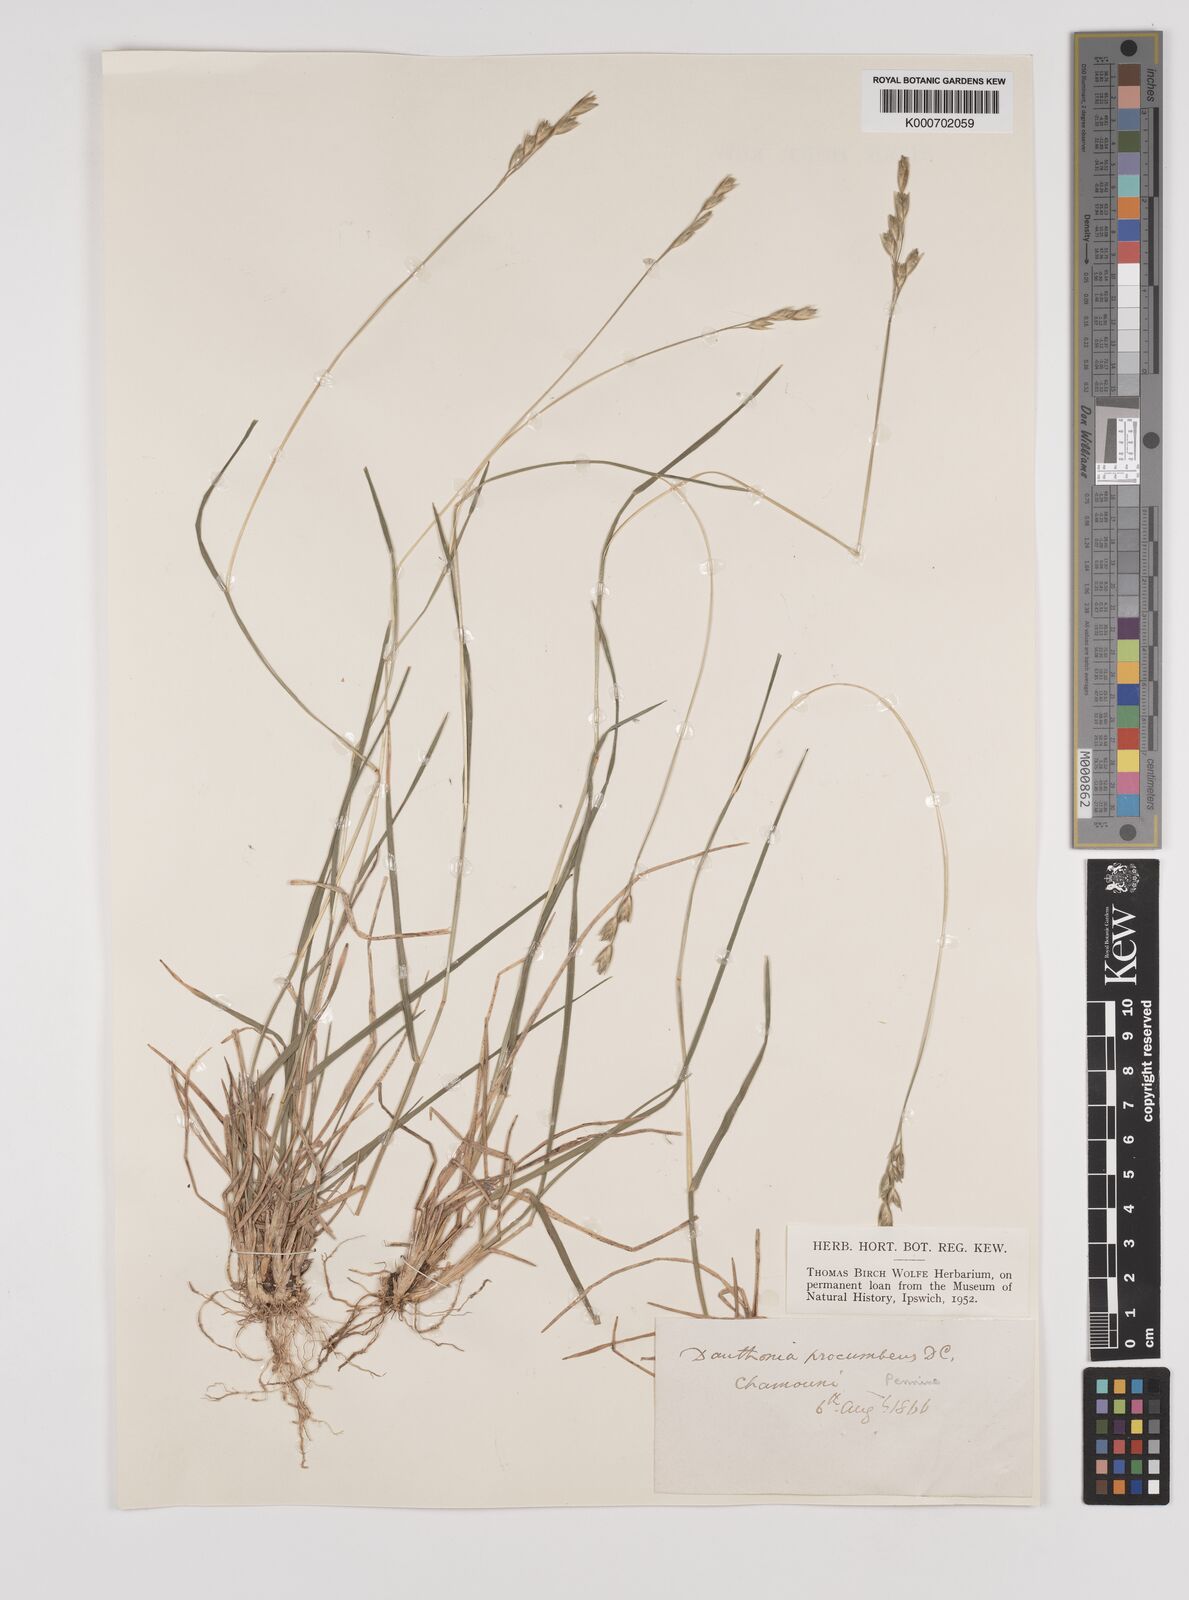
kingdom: Plantae
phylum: Tracheophyta
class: Liliopsida
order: Poales
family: Poaceae
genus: Danthonia
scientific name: Danthonia decumbens
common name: Common heathgrass
